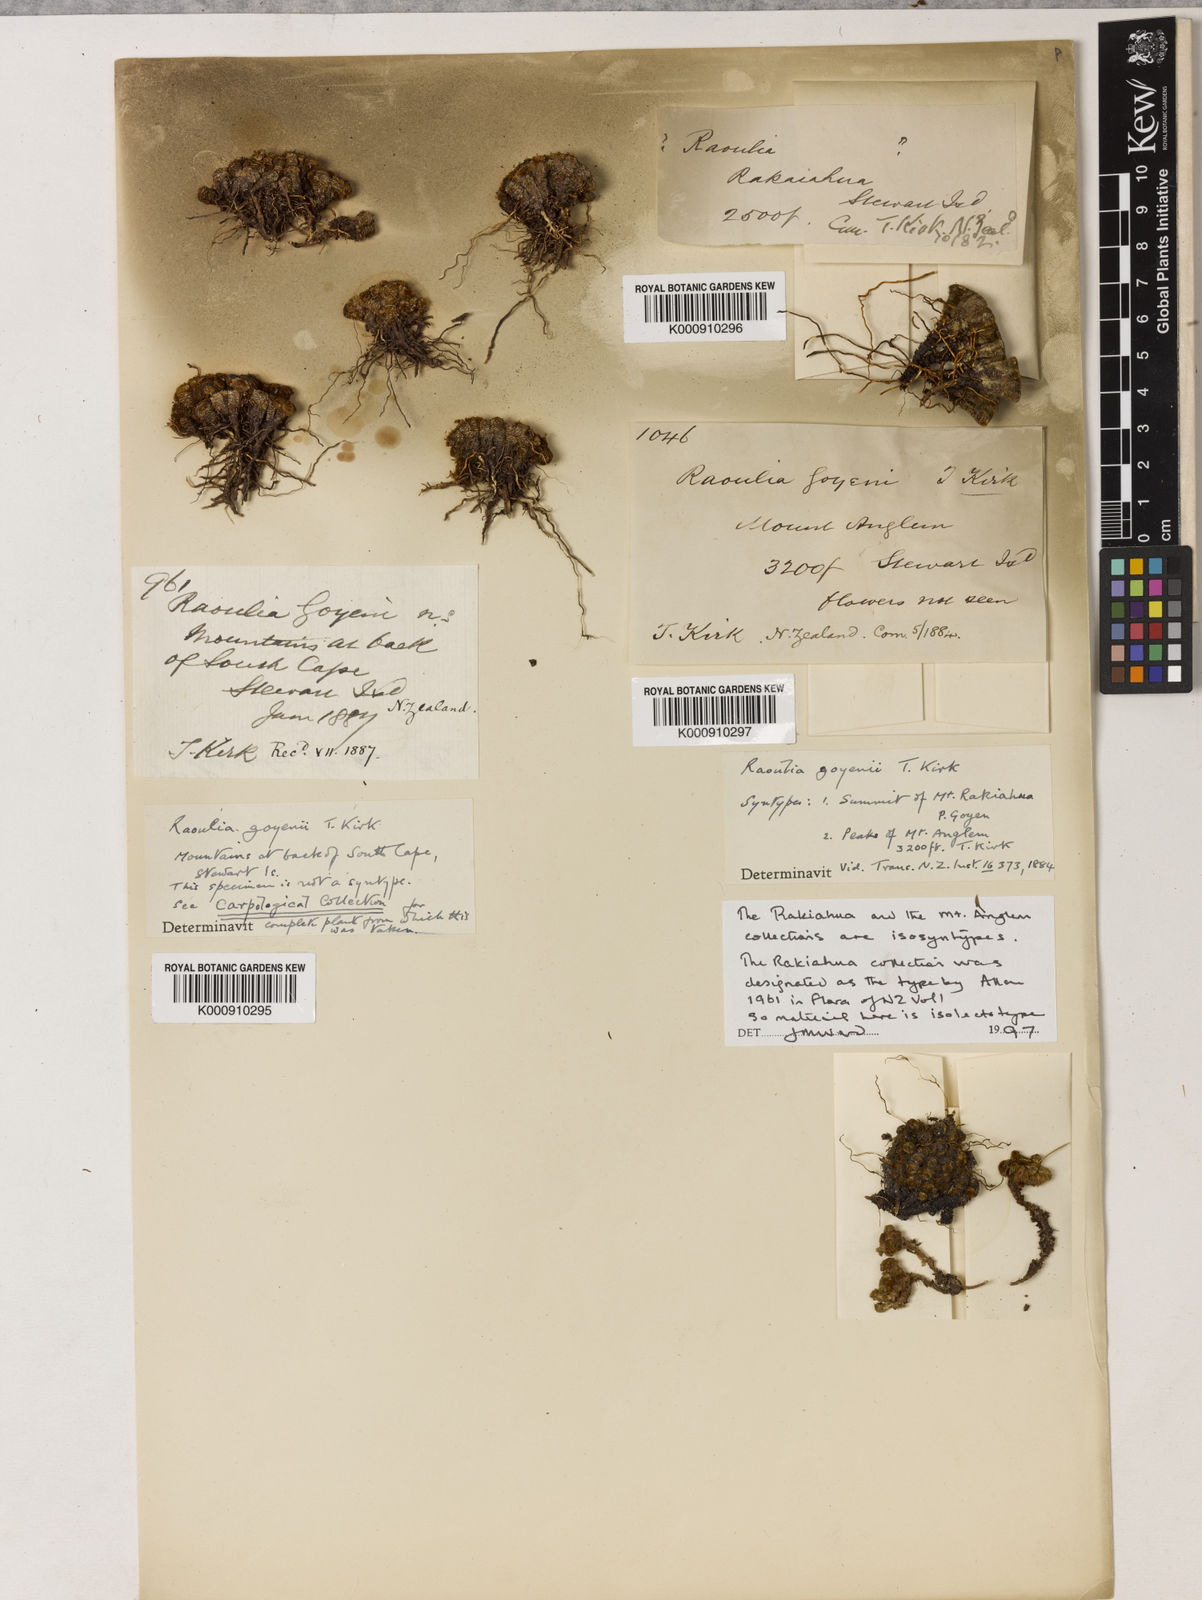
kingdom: Plantae
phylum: Tracheophyta
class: Magnoliopsida
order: Asterales
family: Asteraceae
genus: Raoulia
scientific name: Raoulia goyenii
